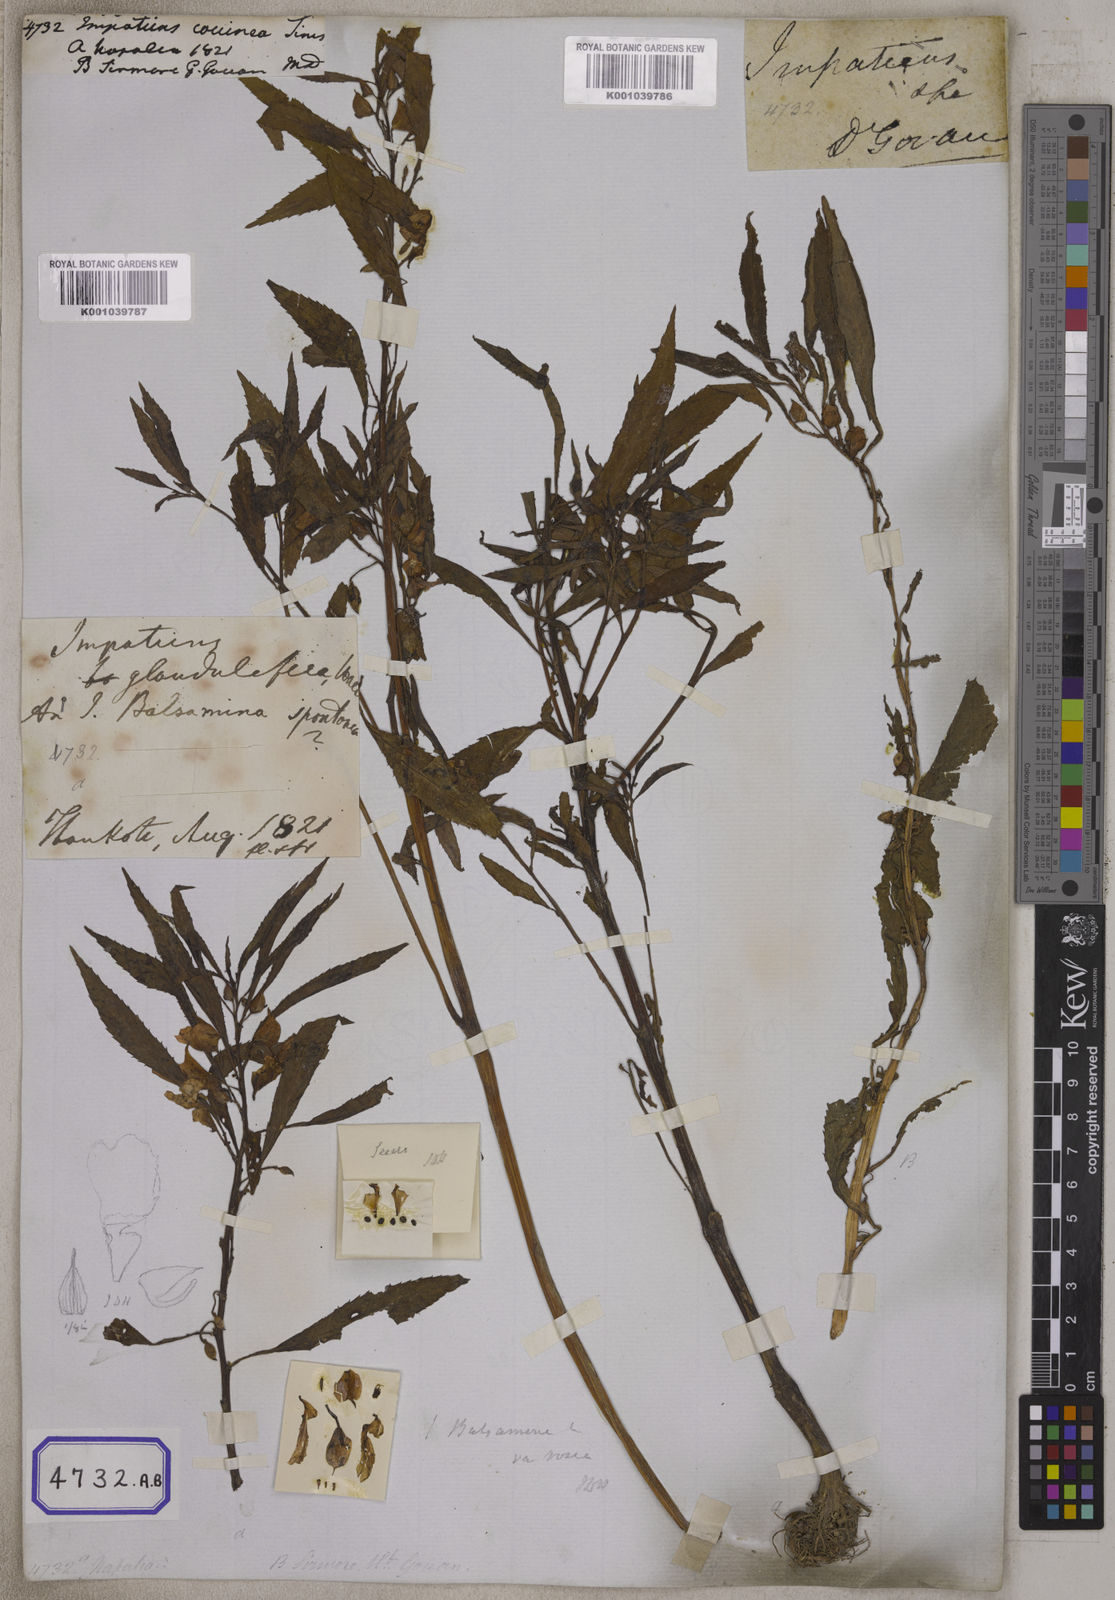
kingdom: Plantae
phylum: Tracheophyta
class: Magnoliopsida
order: Ericales
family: Balsaminaceae
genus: Impatiens
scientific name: Impatiens
